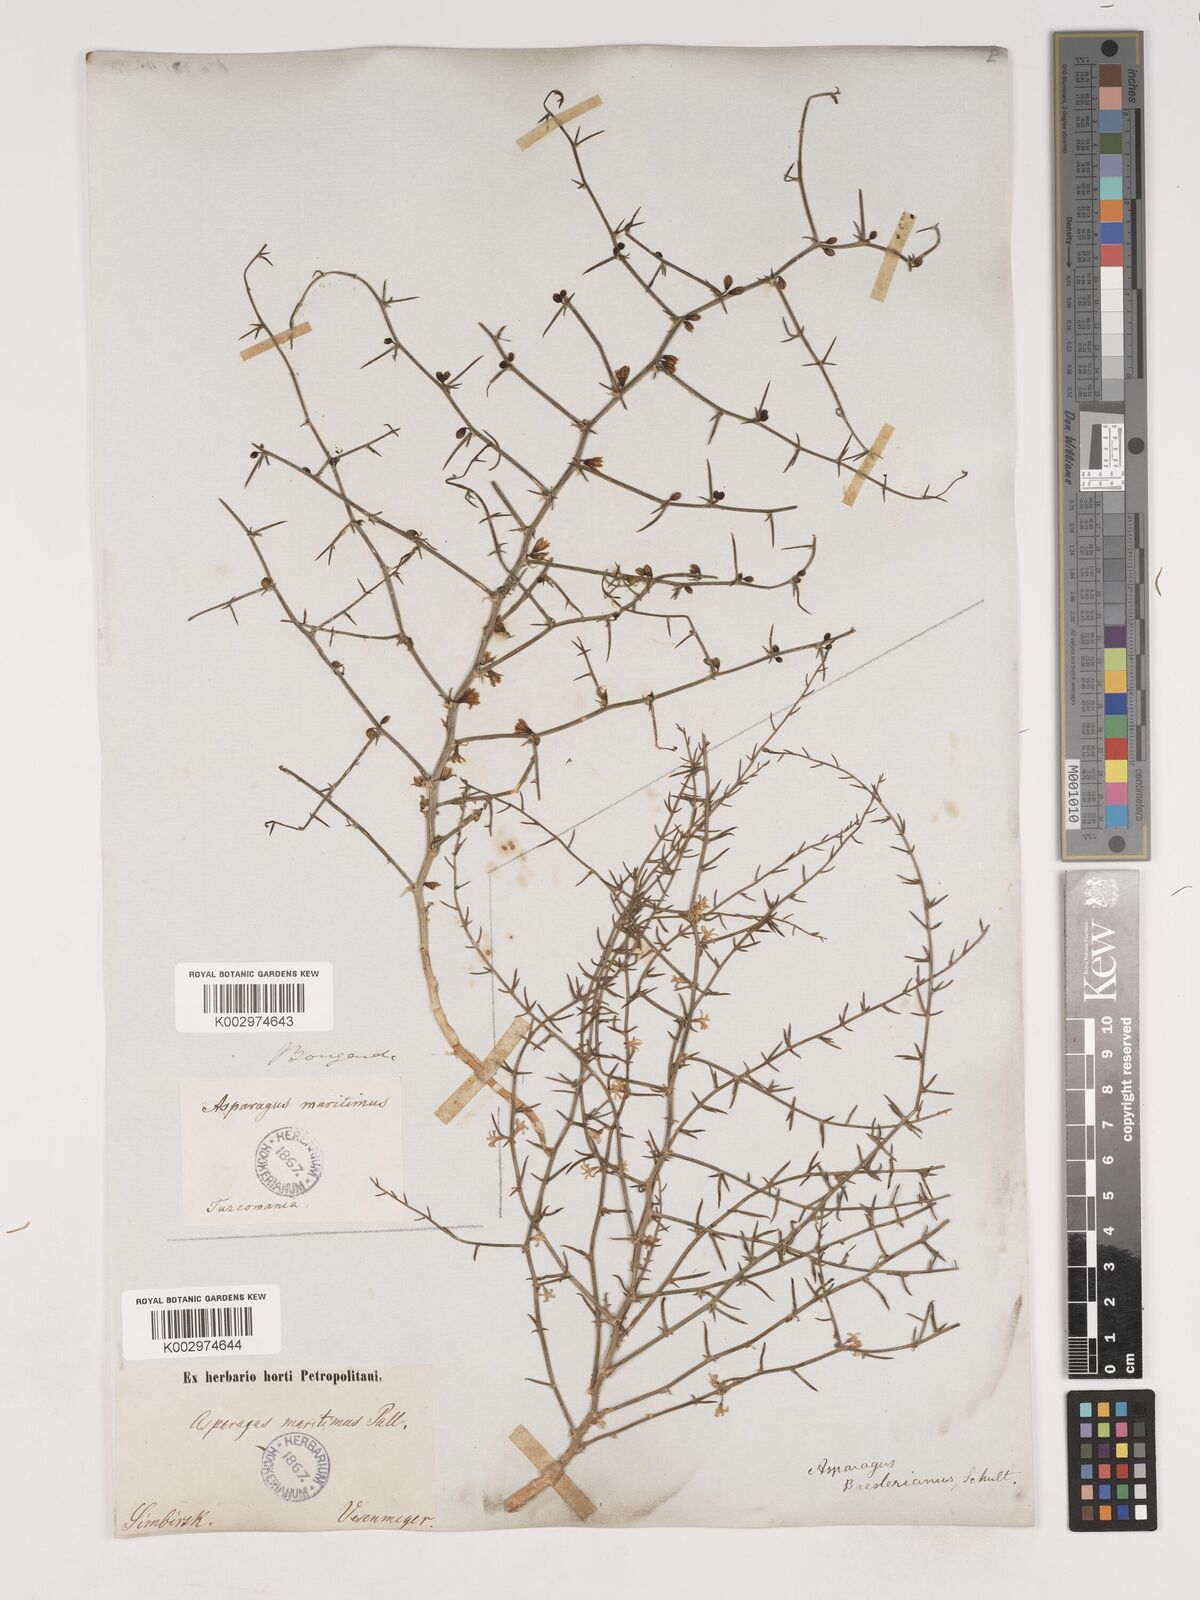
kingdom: Plantae
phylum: Tracheophyta
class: Liliopsida
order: Asparagales
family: Asparagaceae
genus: Asparagus
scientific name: Asparagus breslerianus
